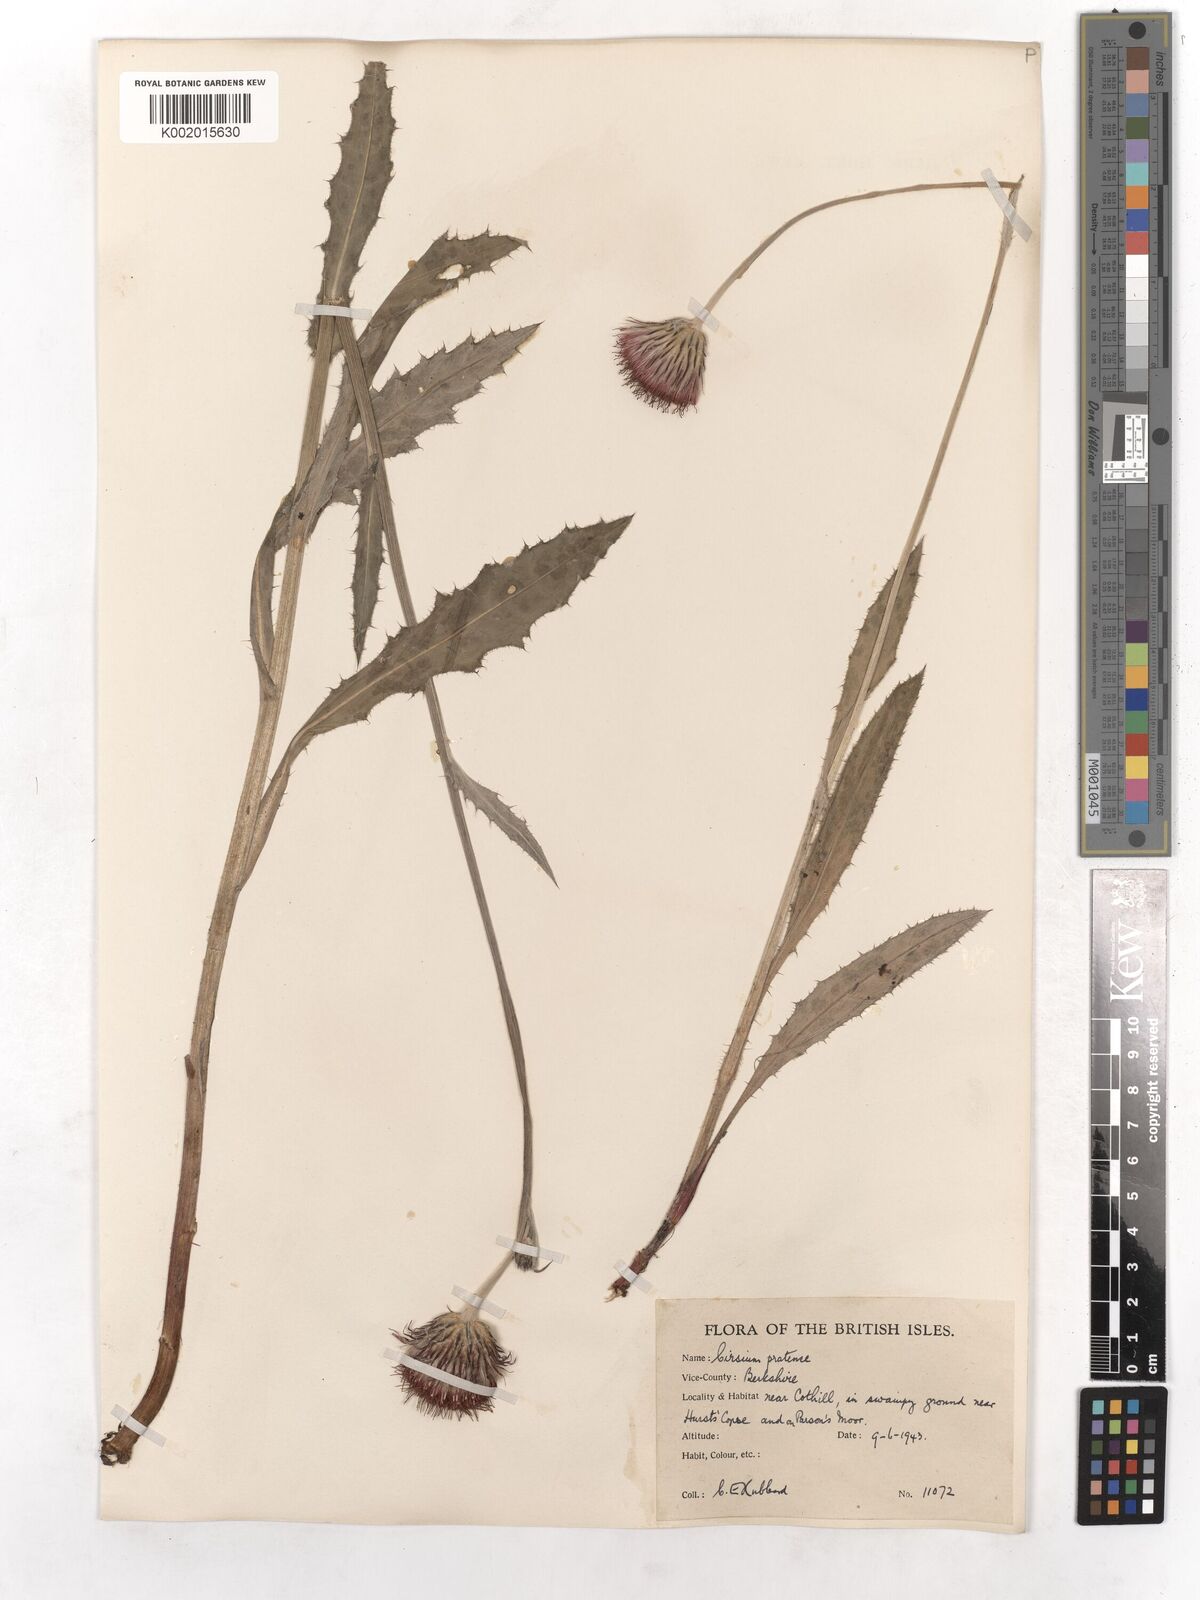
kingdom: Plantae
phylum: Tracheophyta
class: Magnoliopsida
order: Asterales
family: Asteraceae
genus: Cirsium
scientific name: Cirsium dissectum
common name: Meadow thistle
